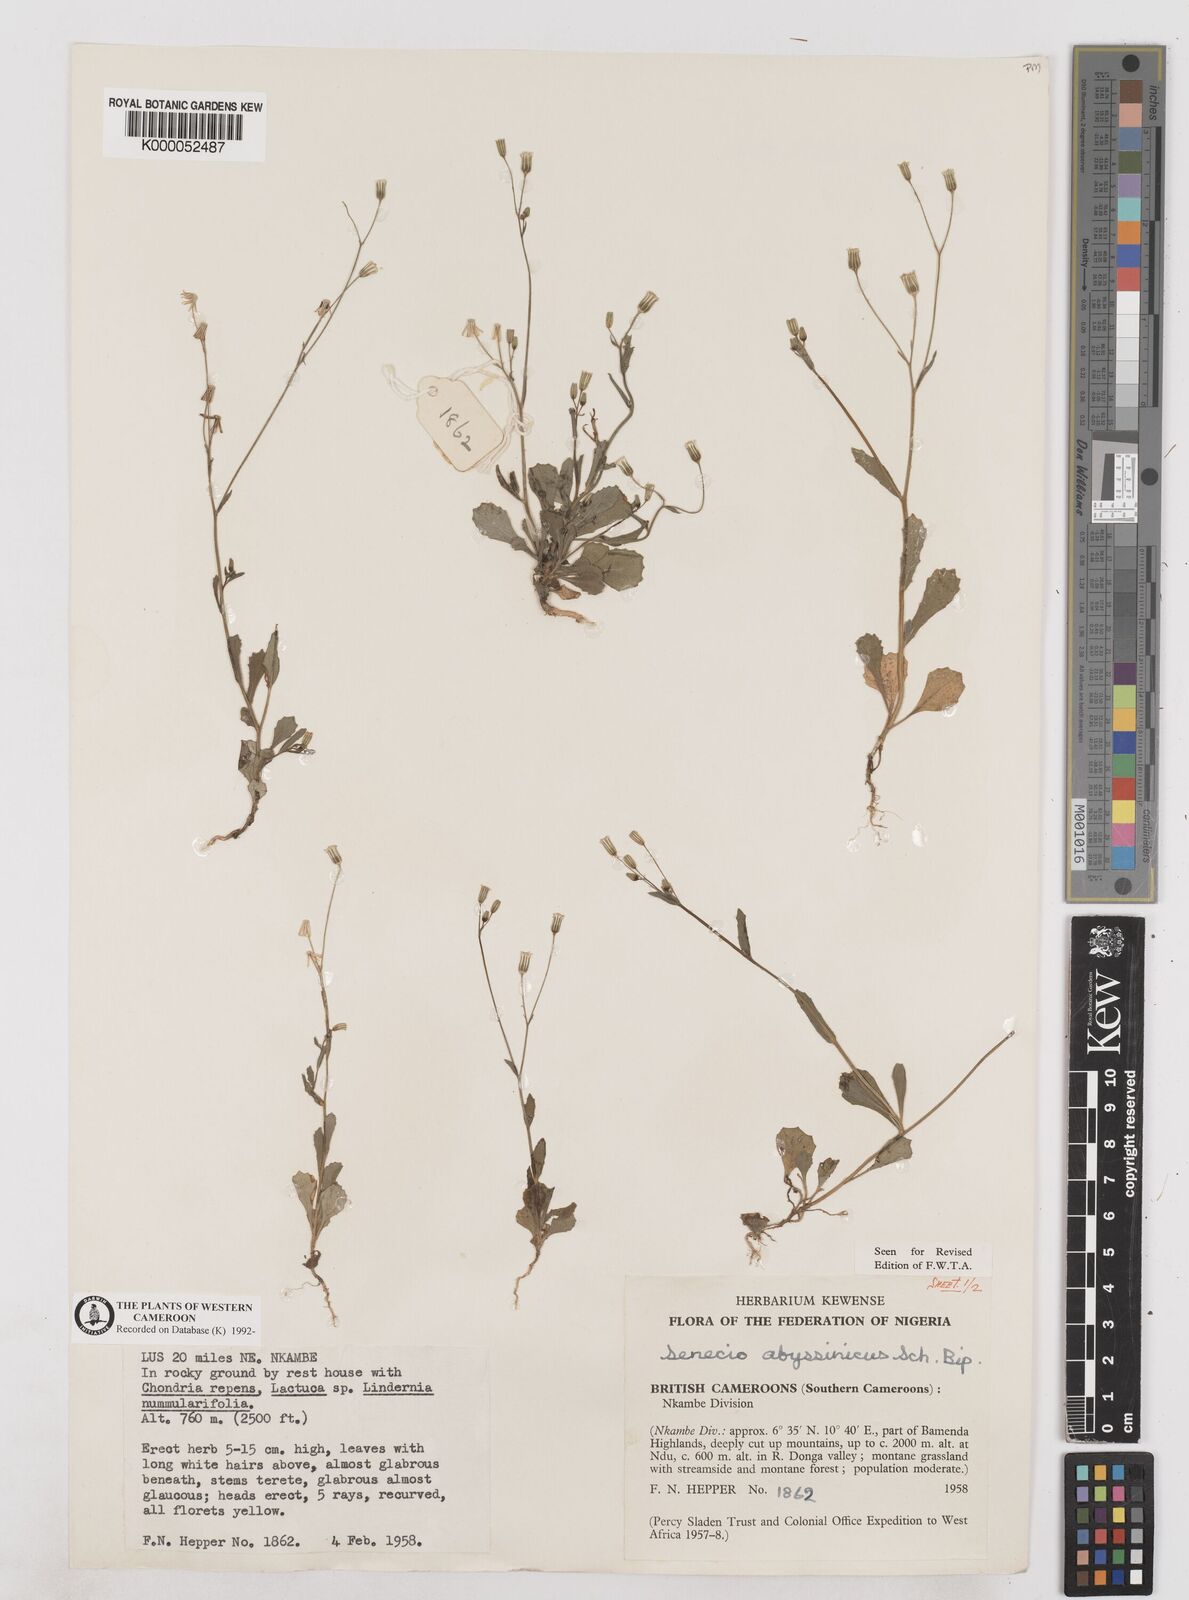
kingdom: Plantae
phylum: Tracheophyta
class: Magnoliopsida
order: Asterales
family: Asteraceae
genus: Emilia
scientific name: Emilia abyssinica
